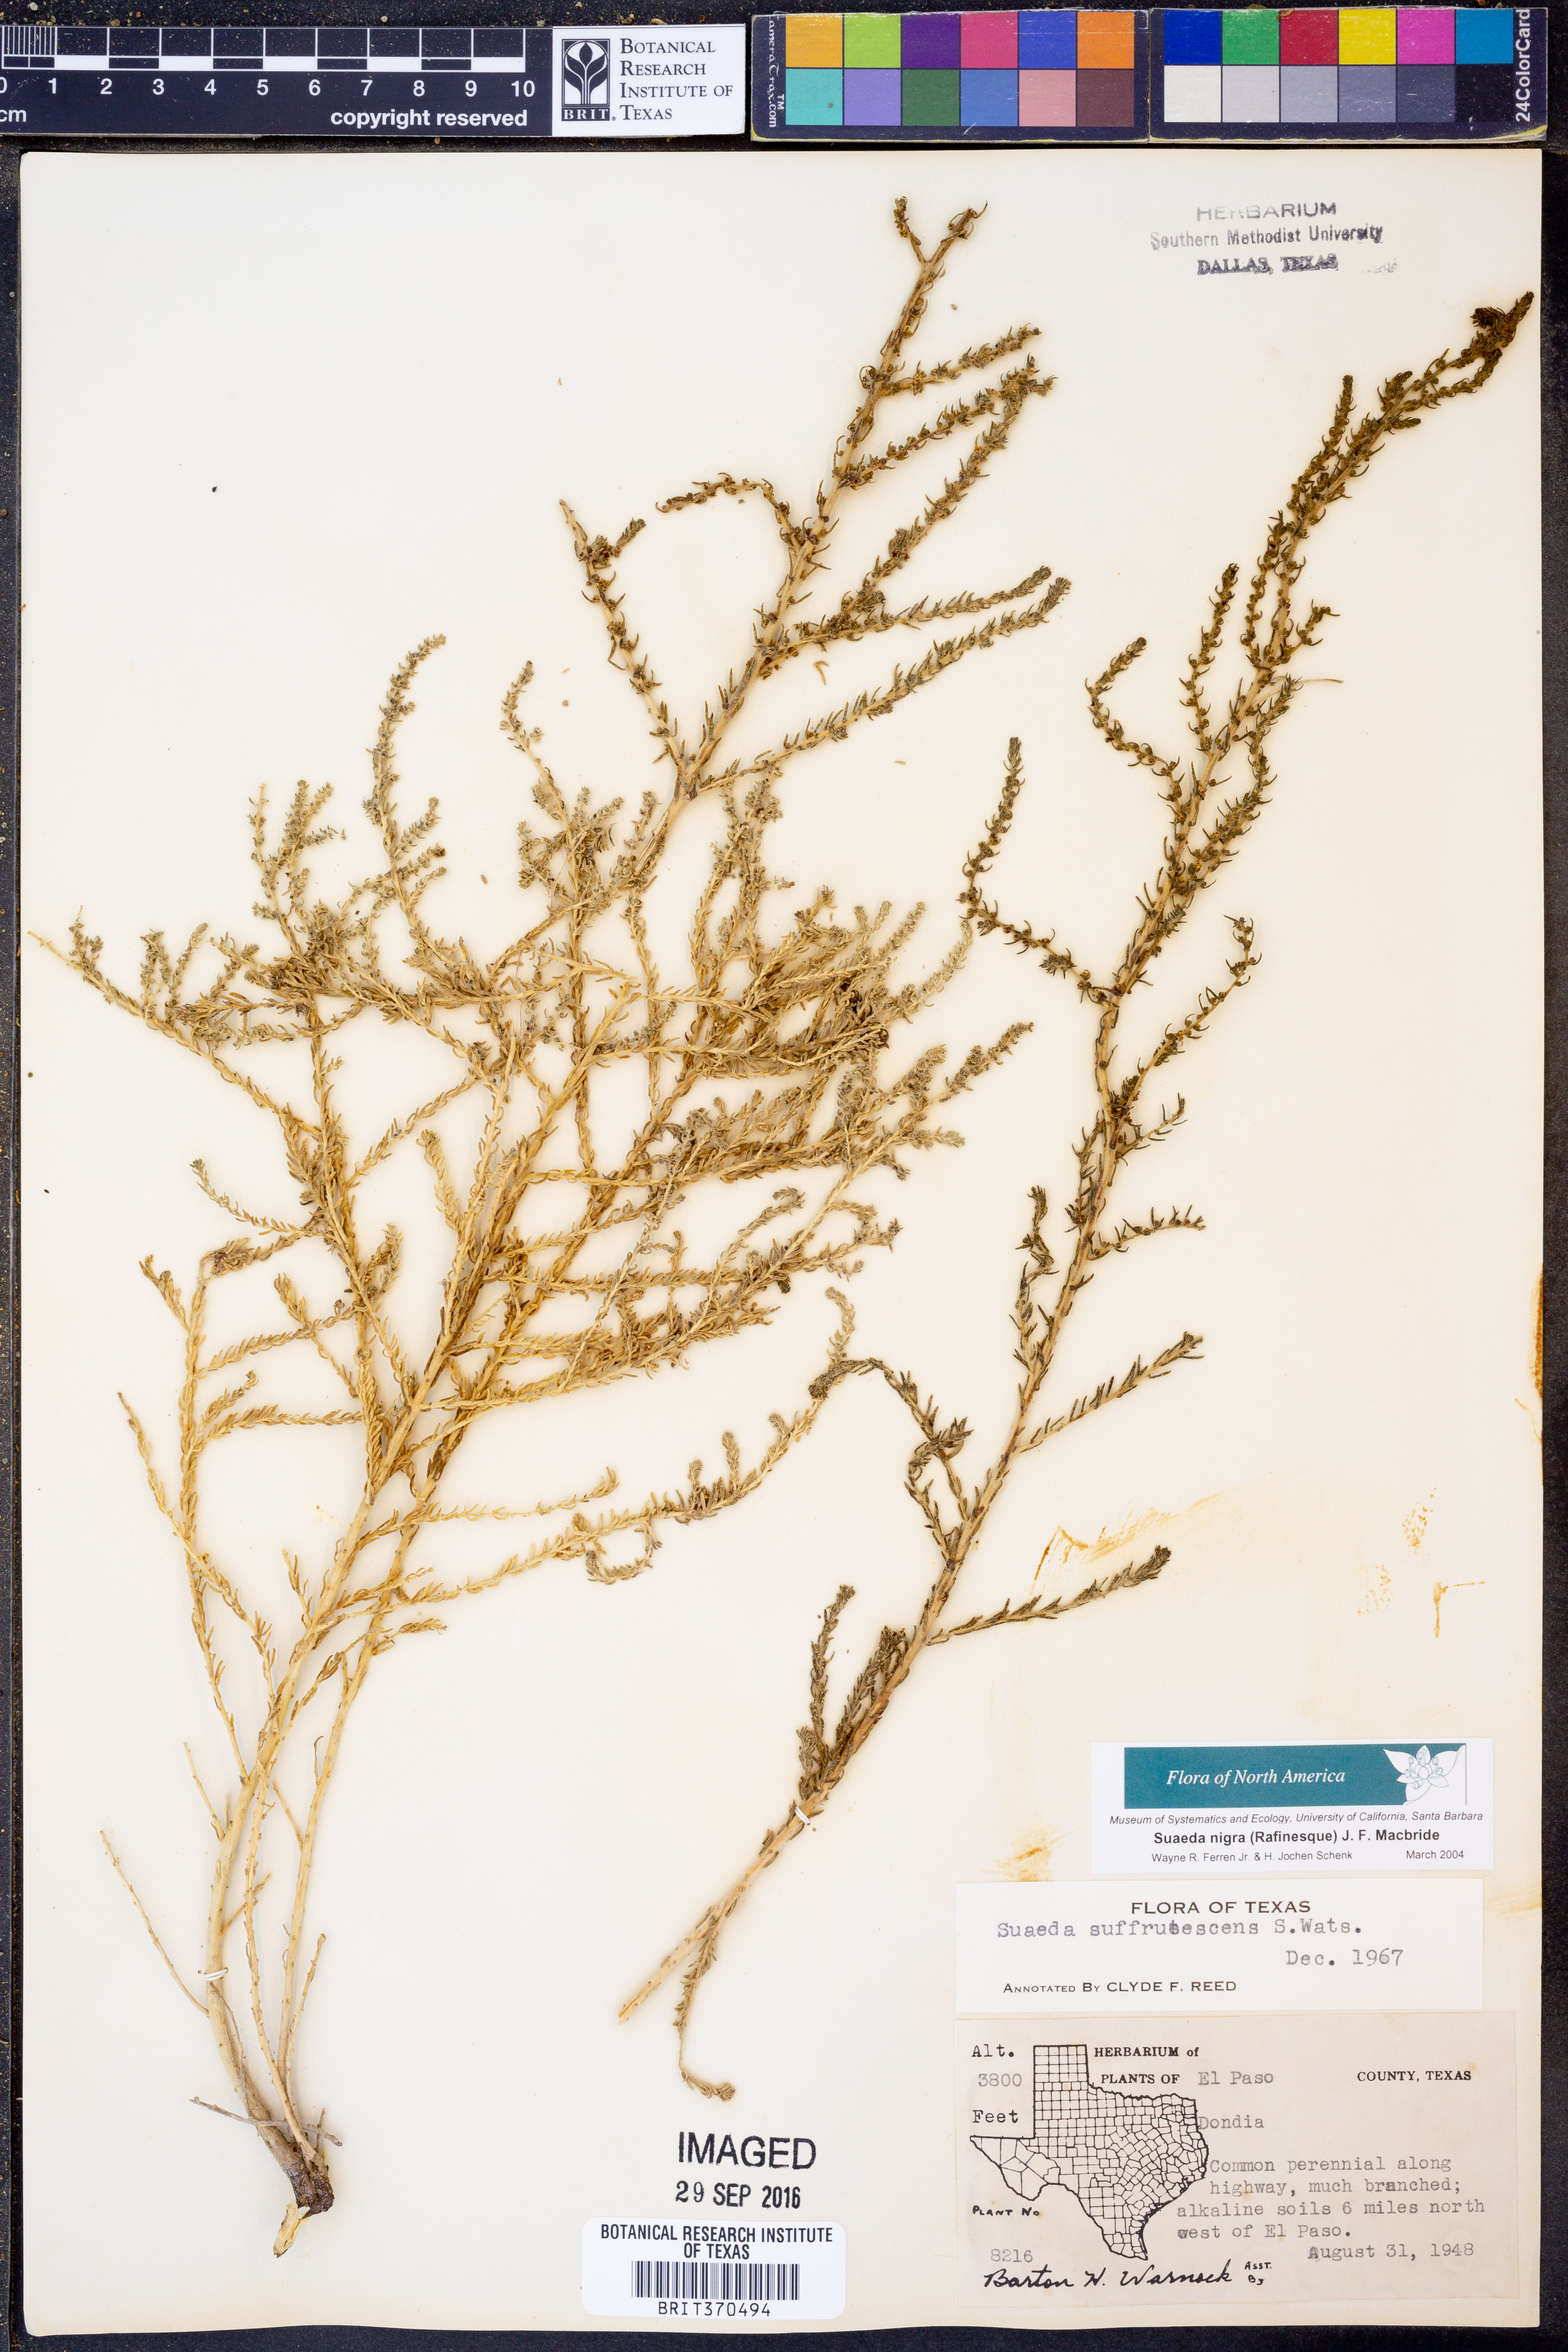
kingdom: Plantae
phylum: Tracheophyta
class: Magnoliopsida
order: Caryophyllales
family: Amaranthaceae
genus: Suaeda
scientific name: Suaeda nigra
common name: Bush seepweed
